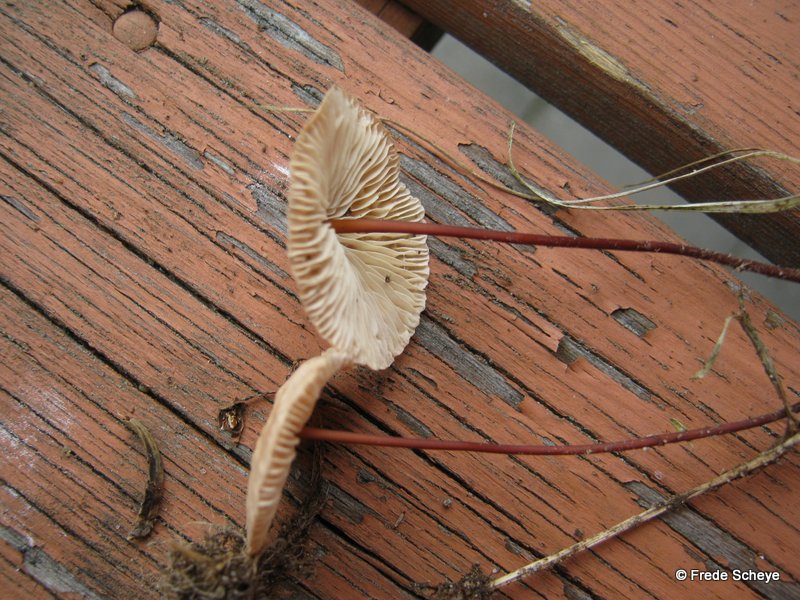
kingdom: Fungi
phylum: Basidiomycota
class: Agaricomycetes
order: Agaricales
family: Omphalotaceae
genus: Mycetinis
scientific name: Mycetinis scorodonius
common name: lille løghat
